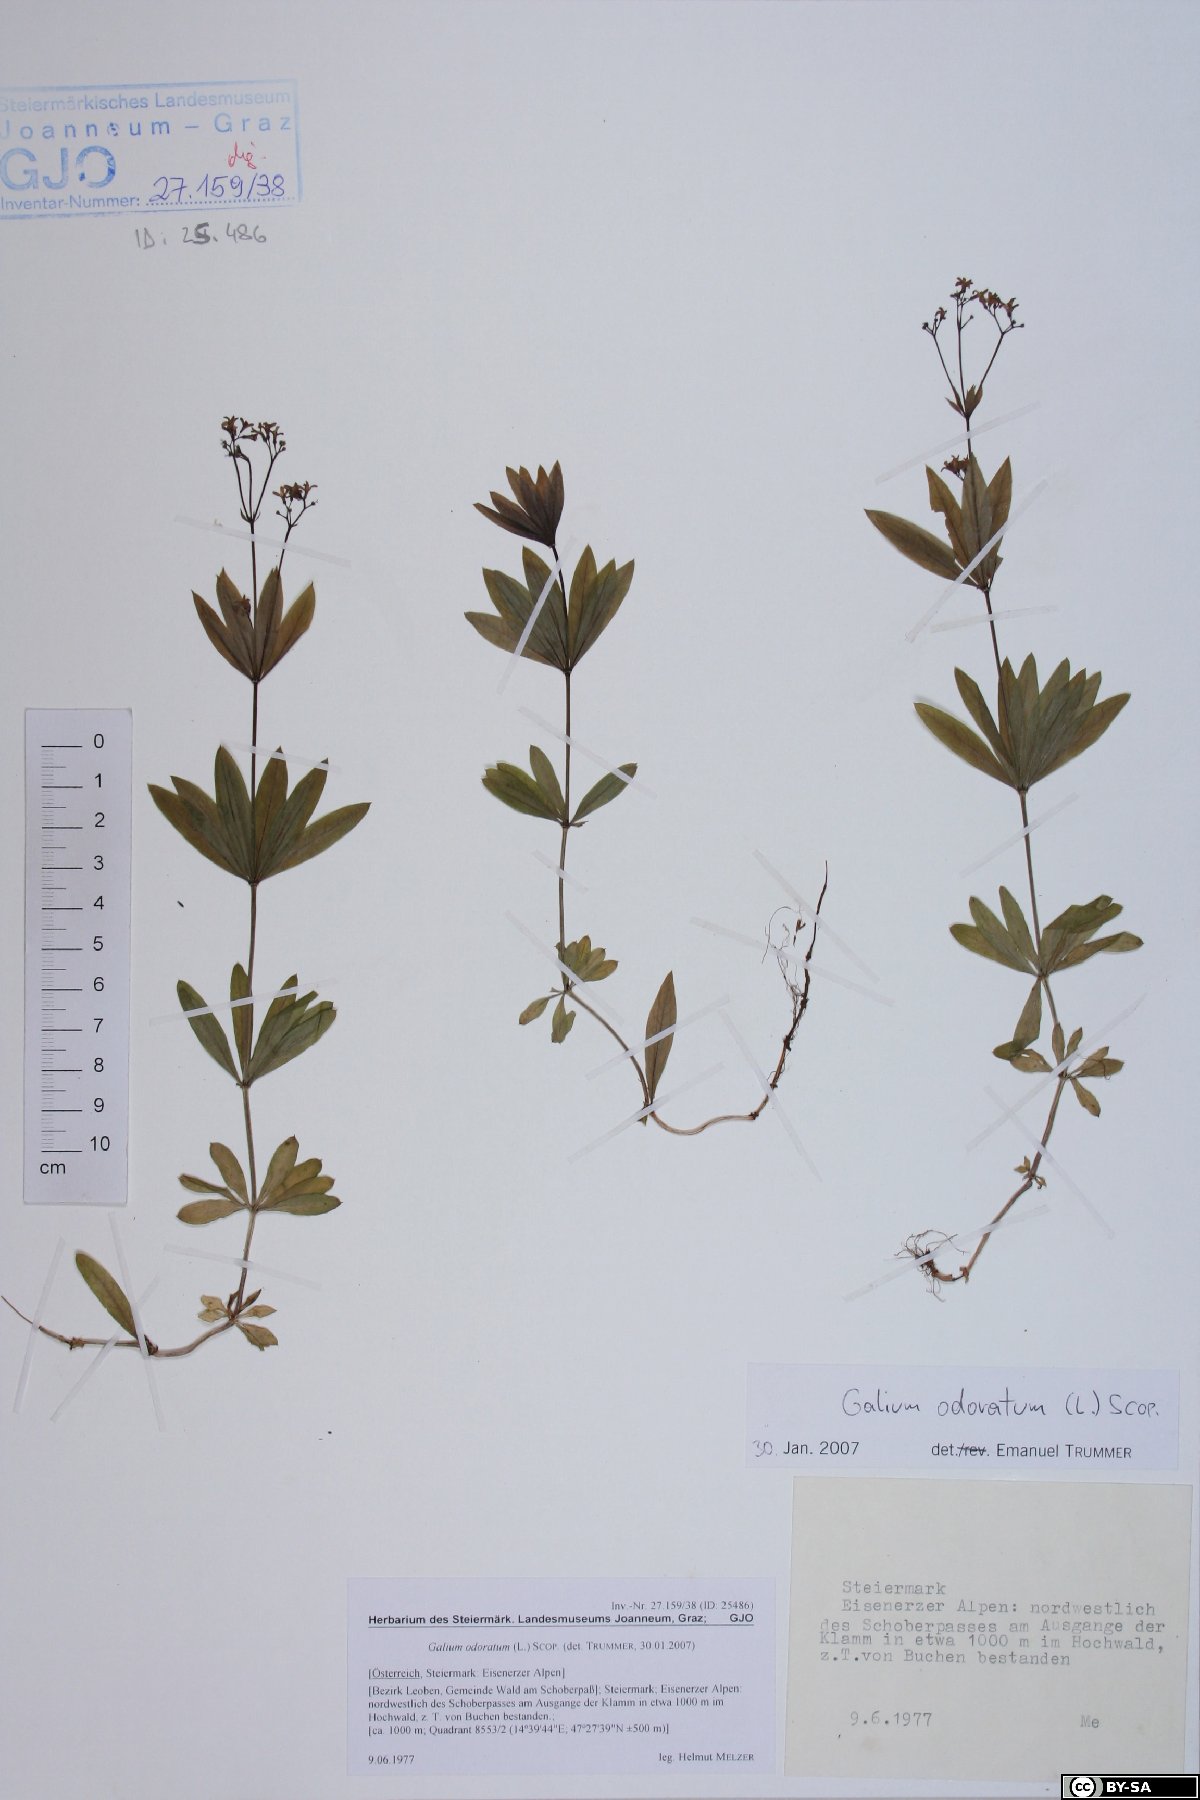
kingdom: Plantae
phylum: Tracheophyta
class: Magnoliopsida
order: Gentianales
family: Rubiaceae
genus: Galium
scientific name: Galium odoratum
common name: Sweet woodruff
